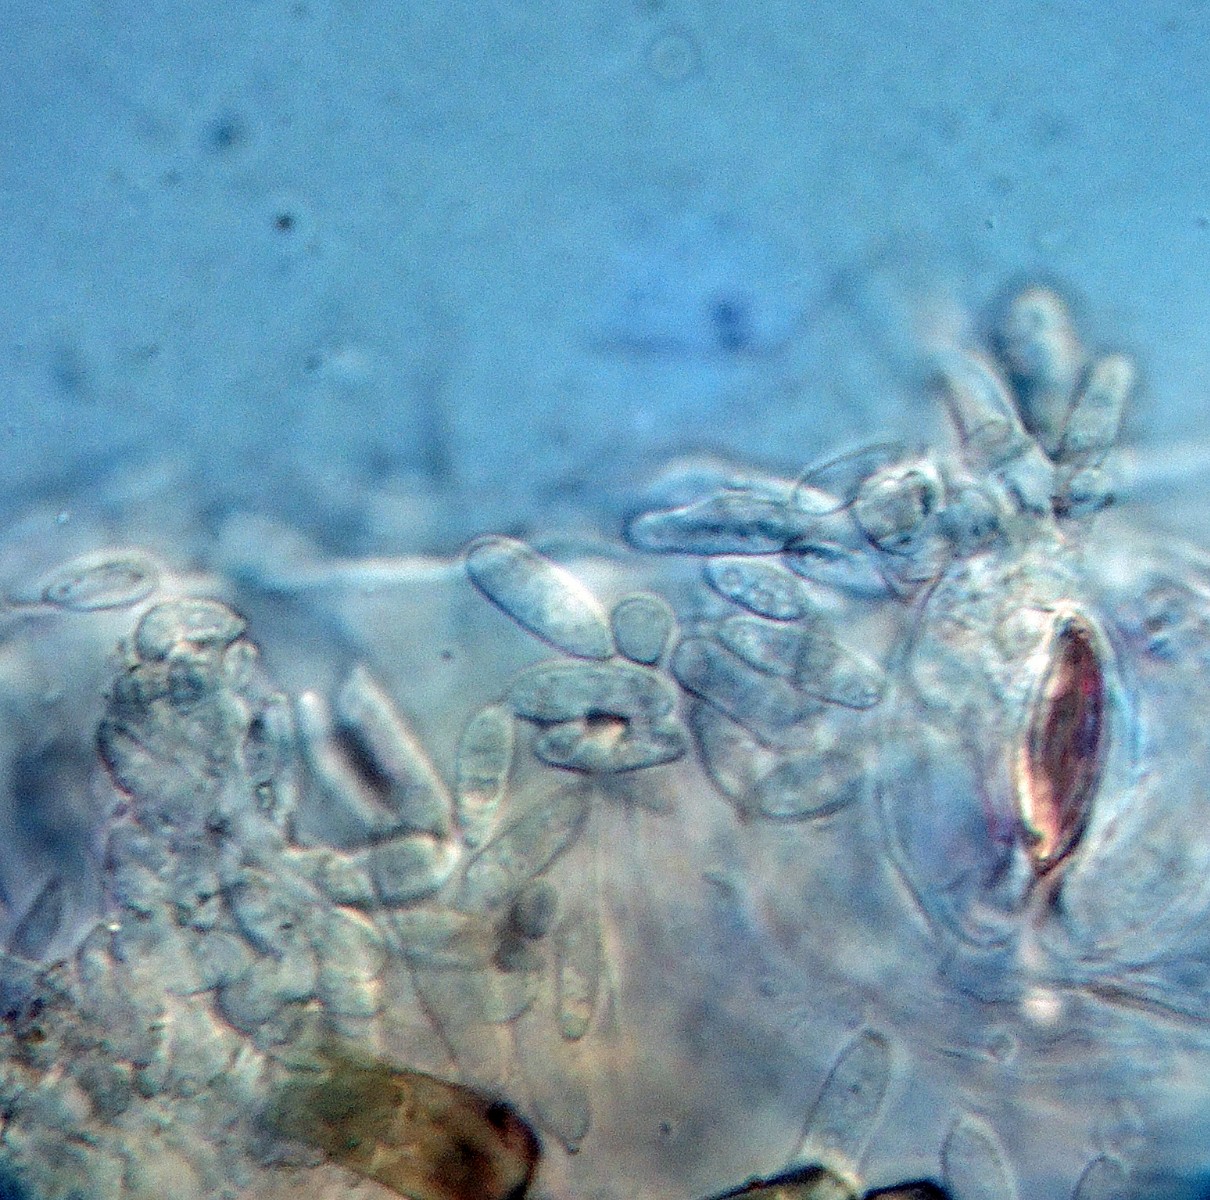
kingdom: Fungi
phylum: Ascomycota
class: Dothideomycetes
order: Mycosphaerellales
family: Mycosphaerellaceae
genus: Ramularia
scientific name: Ramularia agrestis
